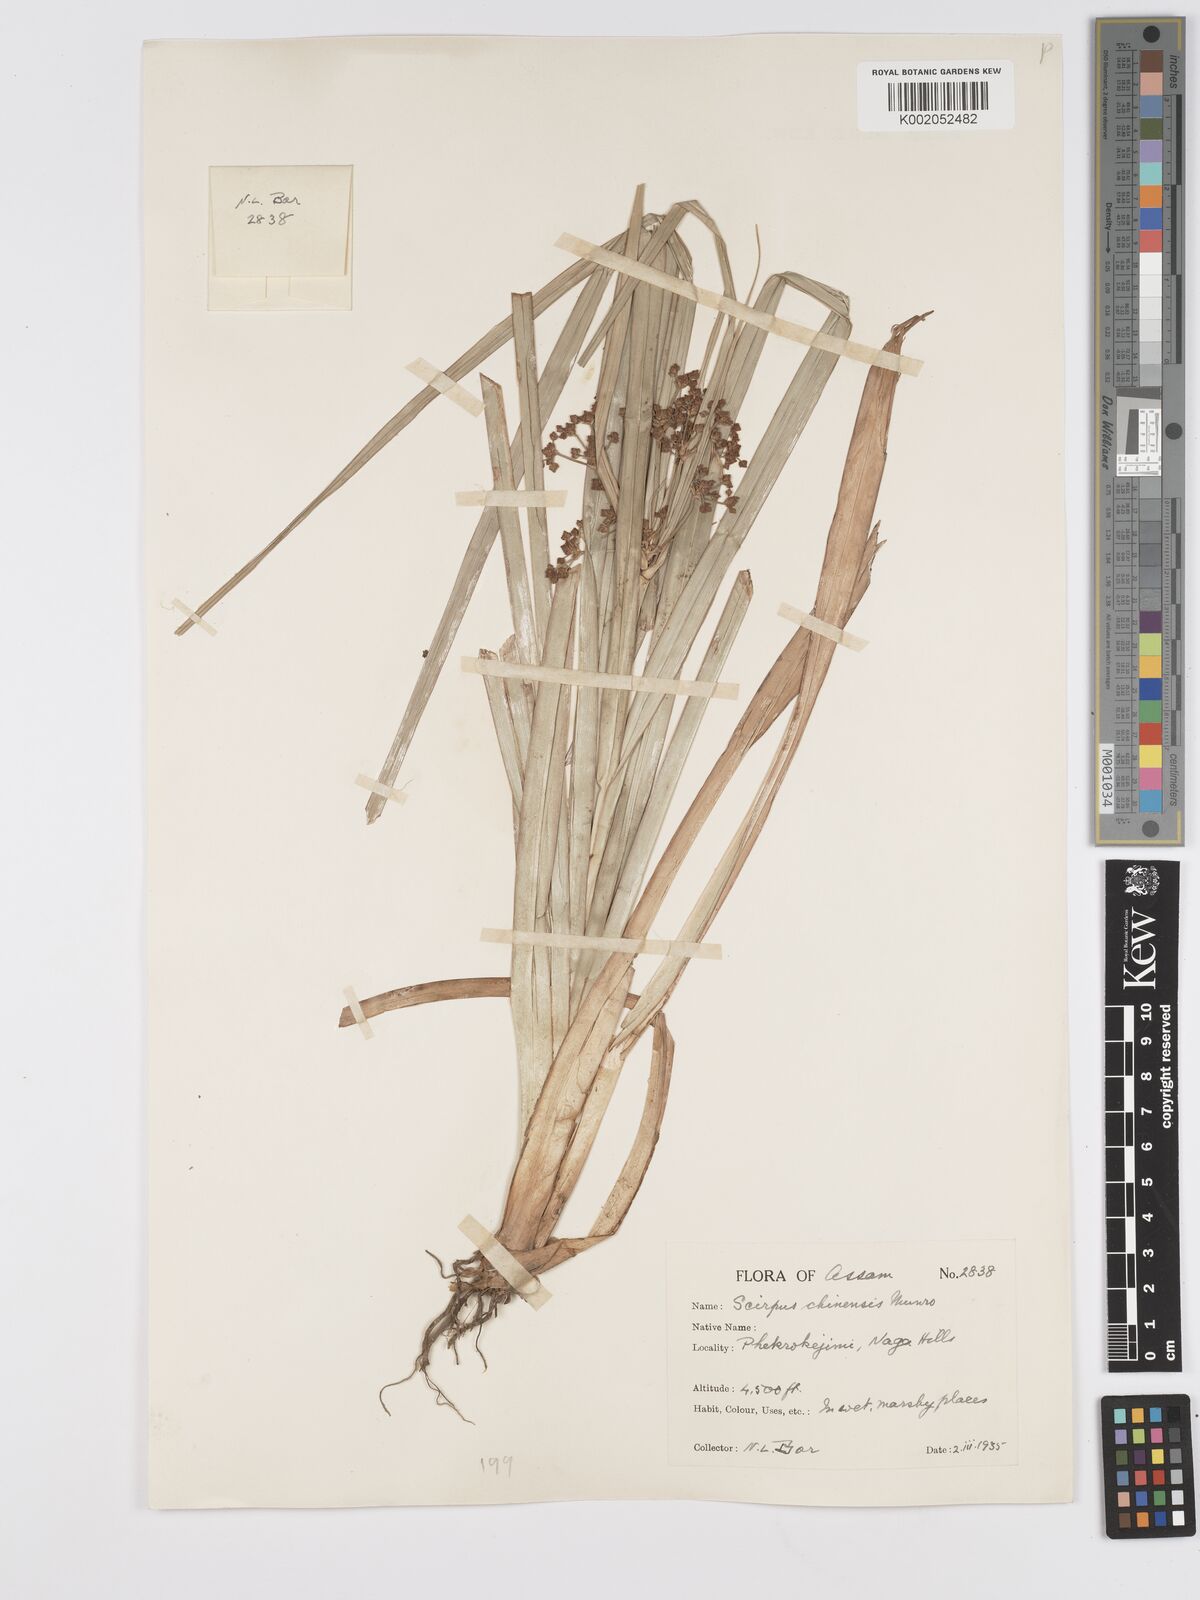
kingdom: Plantae
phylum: Tracheophyta
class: Liliopsida
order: Poales
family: Cyperaceae
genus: Scirpus
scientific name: Scirpus ternatanus
